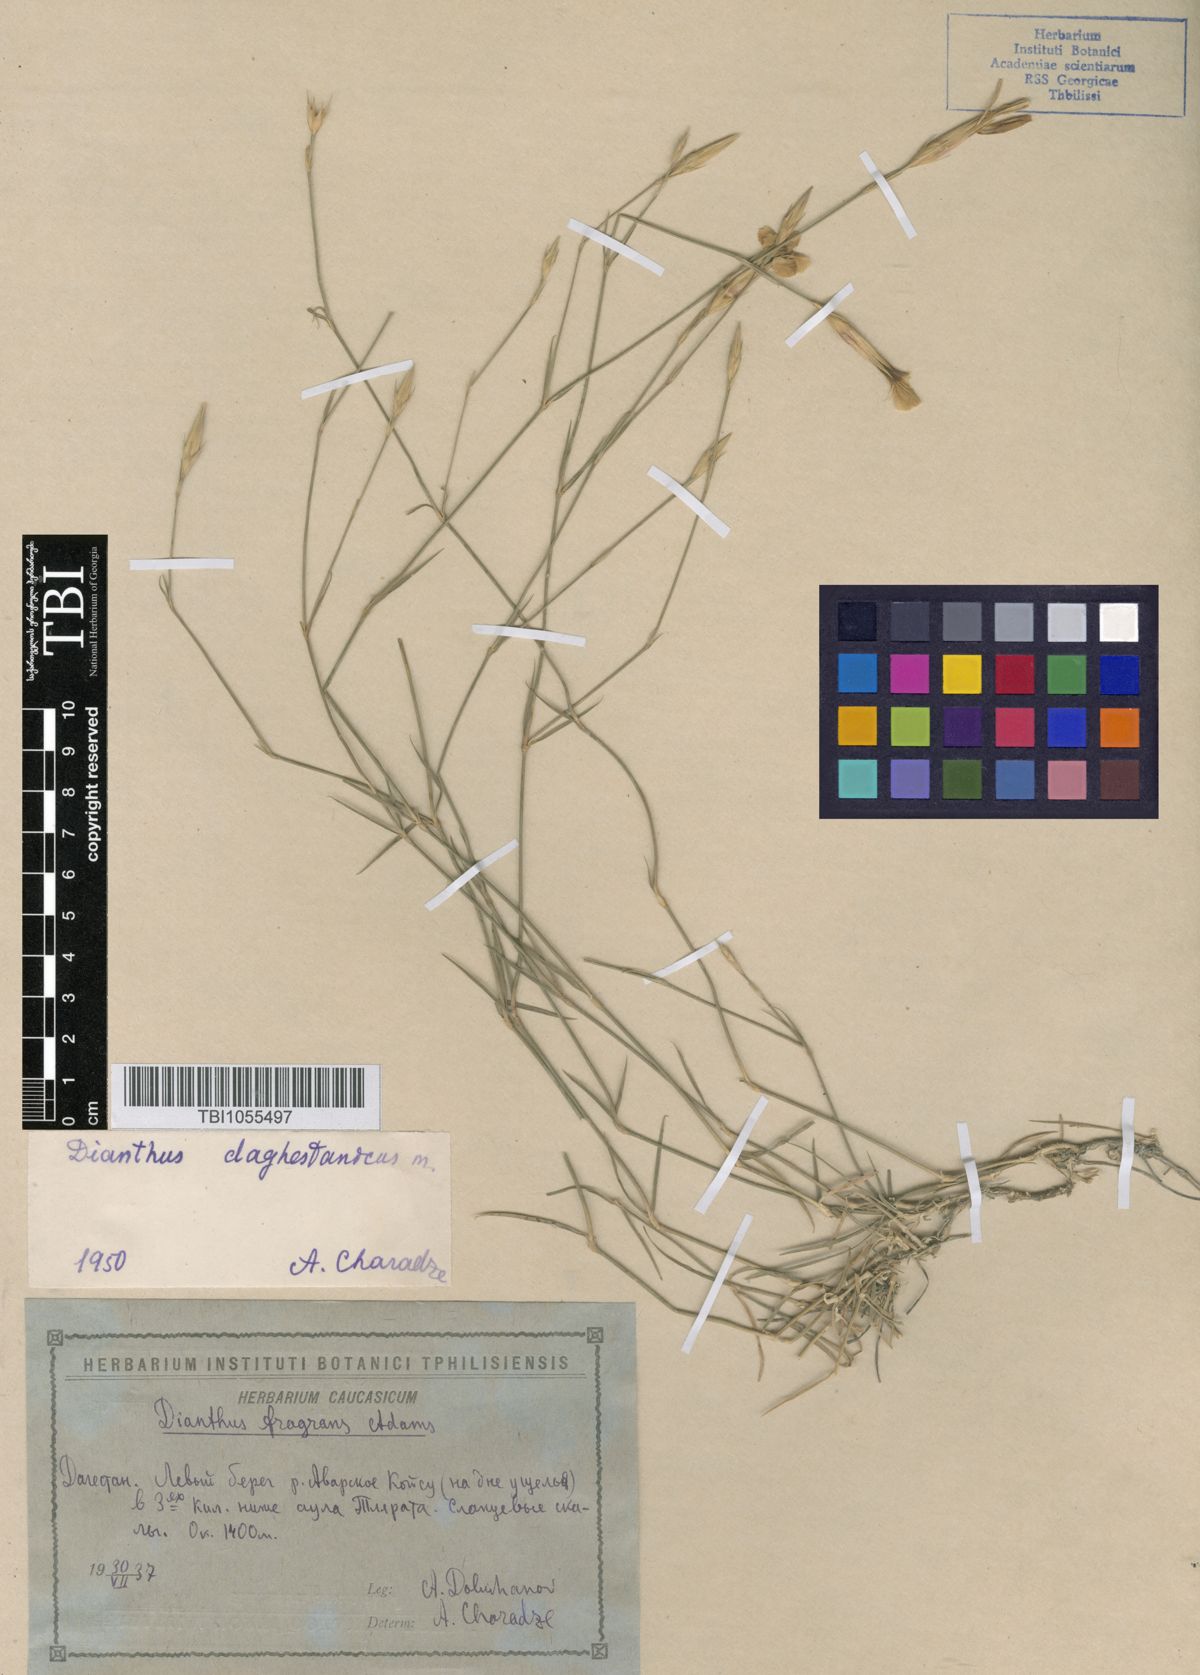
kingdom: Plantae
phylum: Tracheophyta
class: Magnoliopsida
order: Caryophyllales
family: Caryophyllaceae
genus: Dianthus
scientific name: Dianthus daghestanicus
